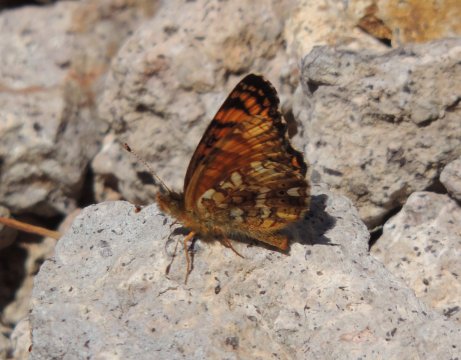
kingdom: Animalia
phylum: Arthropoda
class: Insecta
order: Lepidoptera
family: Nymphalidae
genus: Eresia
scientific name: Eresia aveyrona
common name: Mylitta Crescent
